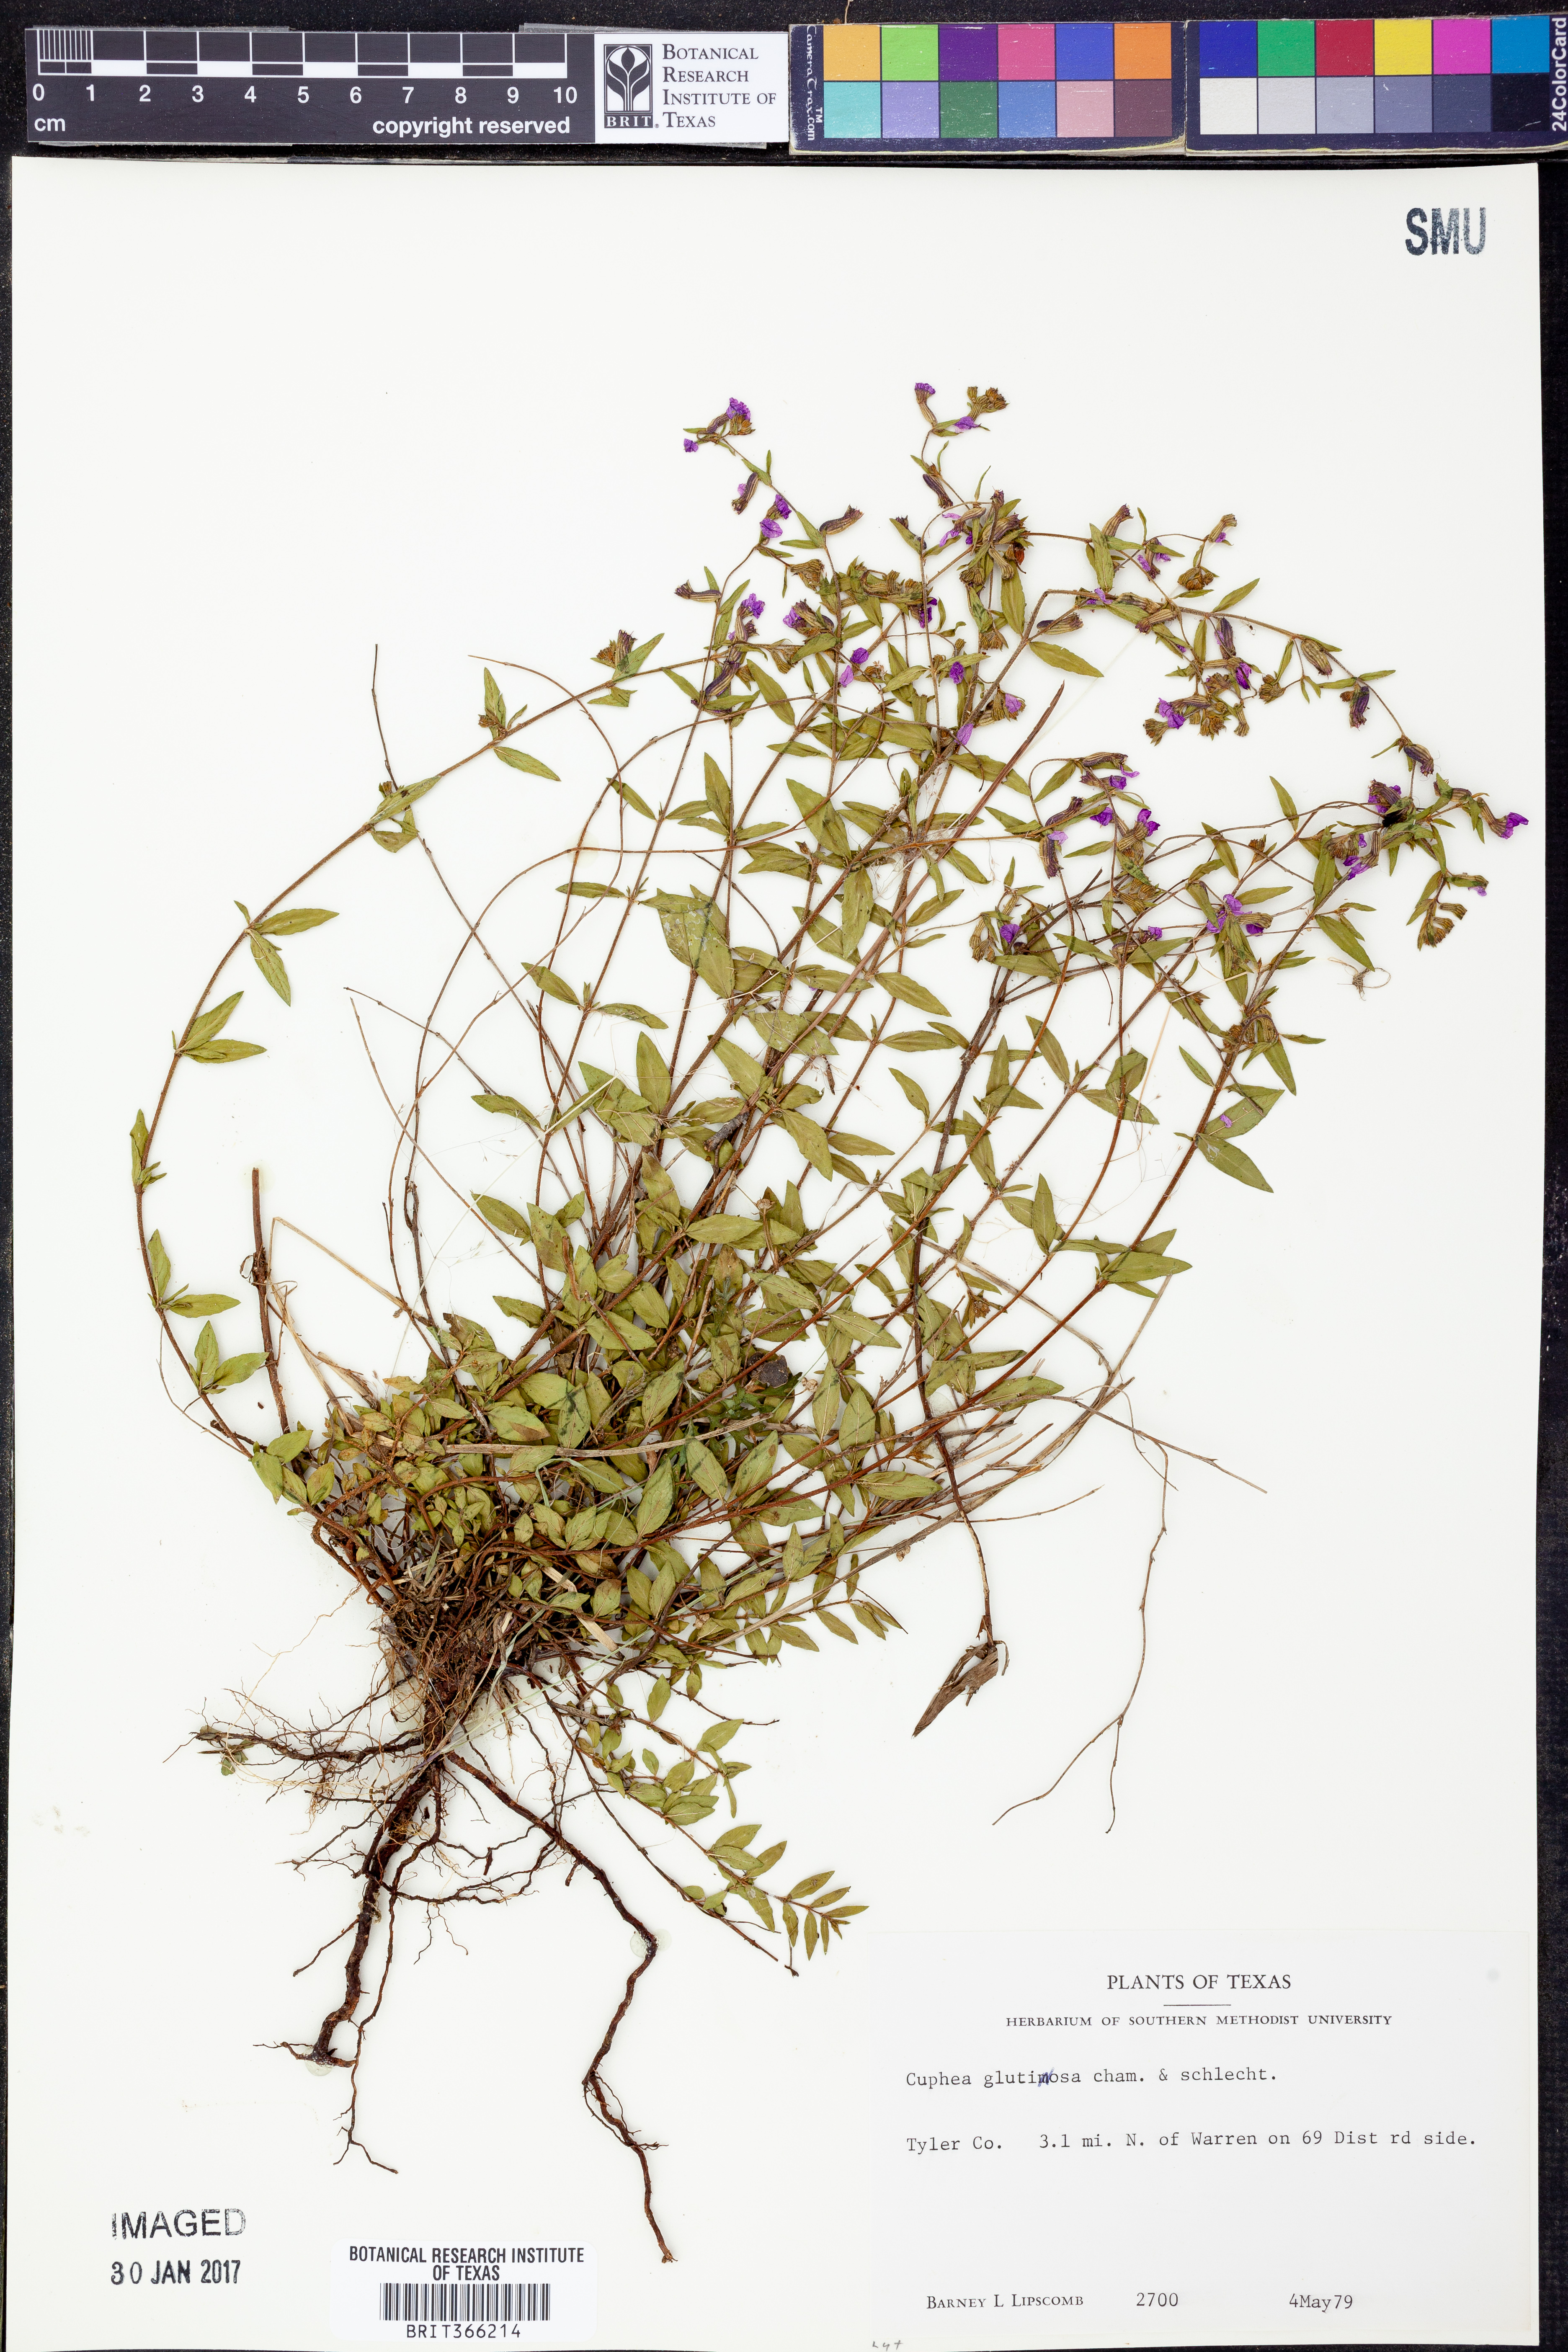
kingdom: Plantae
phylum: Tracheophyta
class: Magnoliopsida
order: Myrtales
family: Lythraceae
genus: Cuphea
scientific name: Cuphea glutinosa
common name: Sticky waxweed
